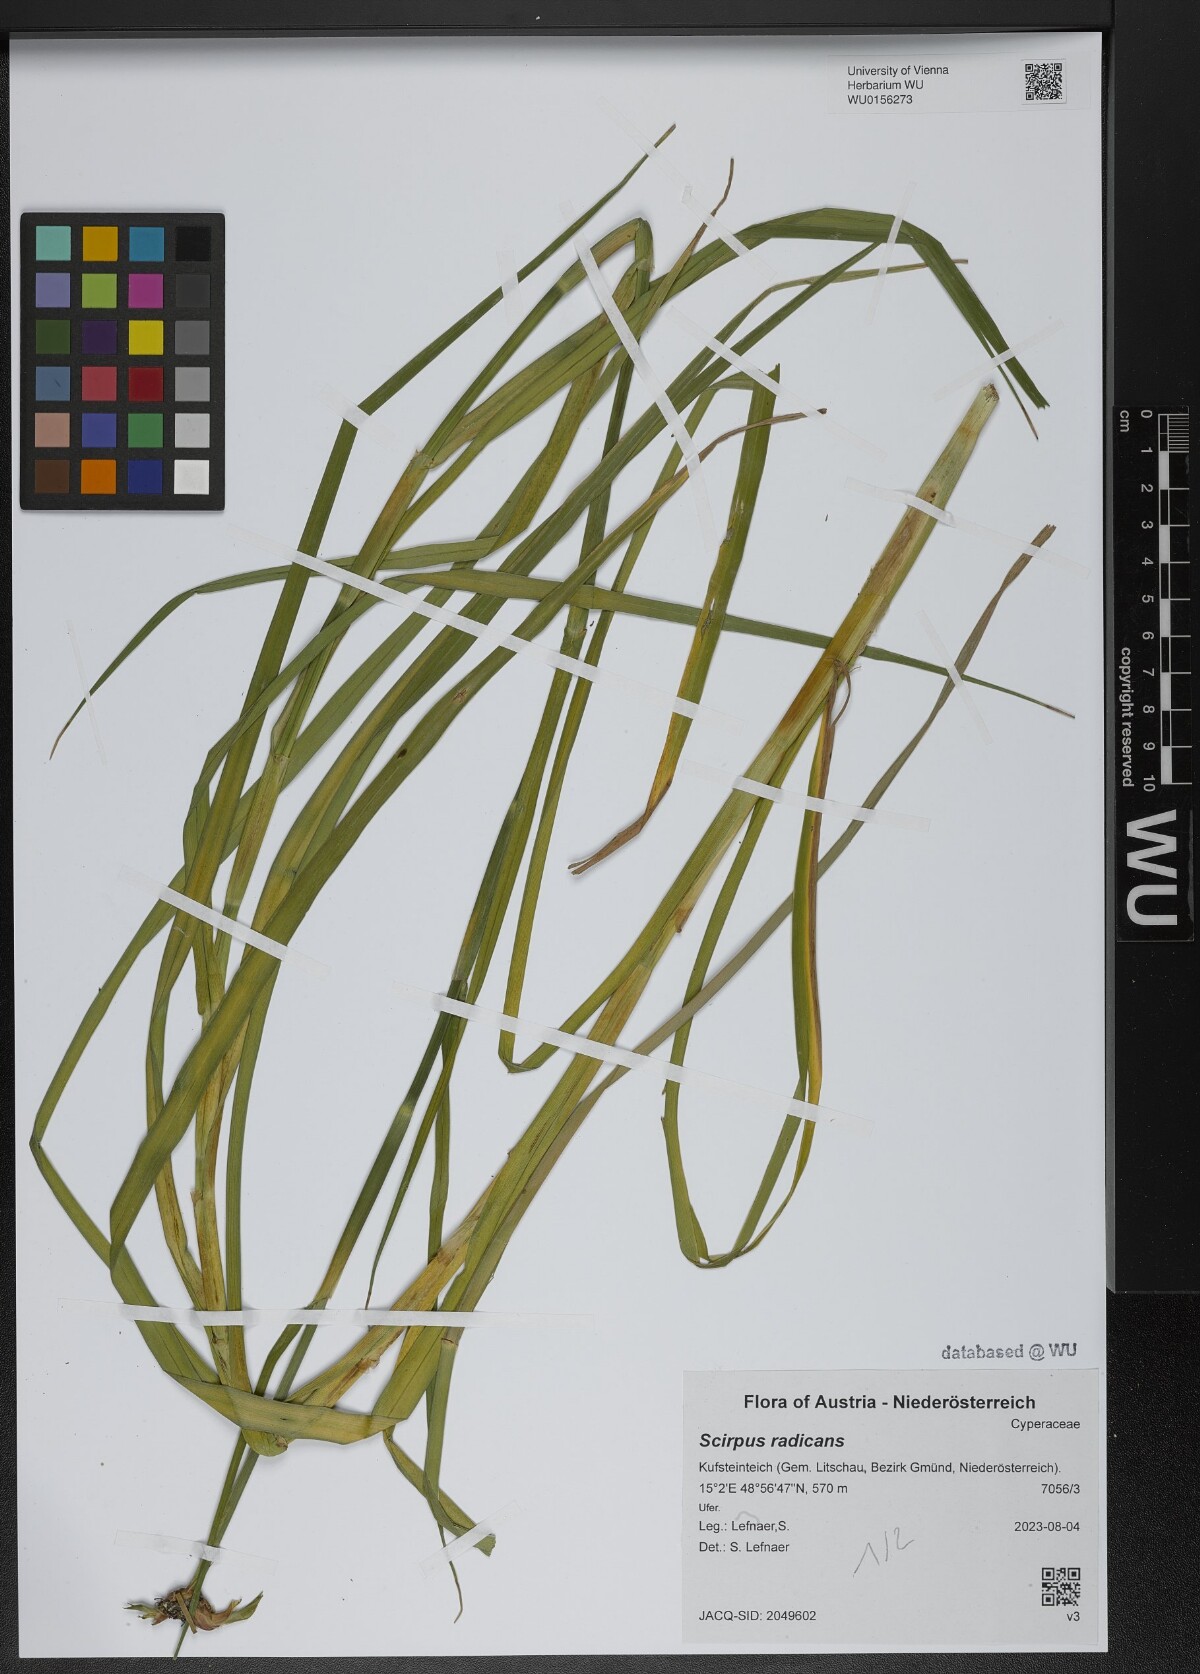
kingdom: Plantae
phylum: Tracheophyta
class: Liliopsida
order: Poales
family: Cyperaceae
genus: Scirpus
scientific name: Scirpus radicans
